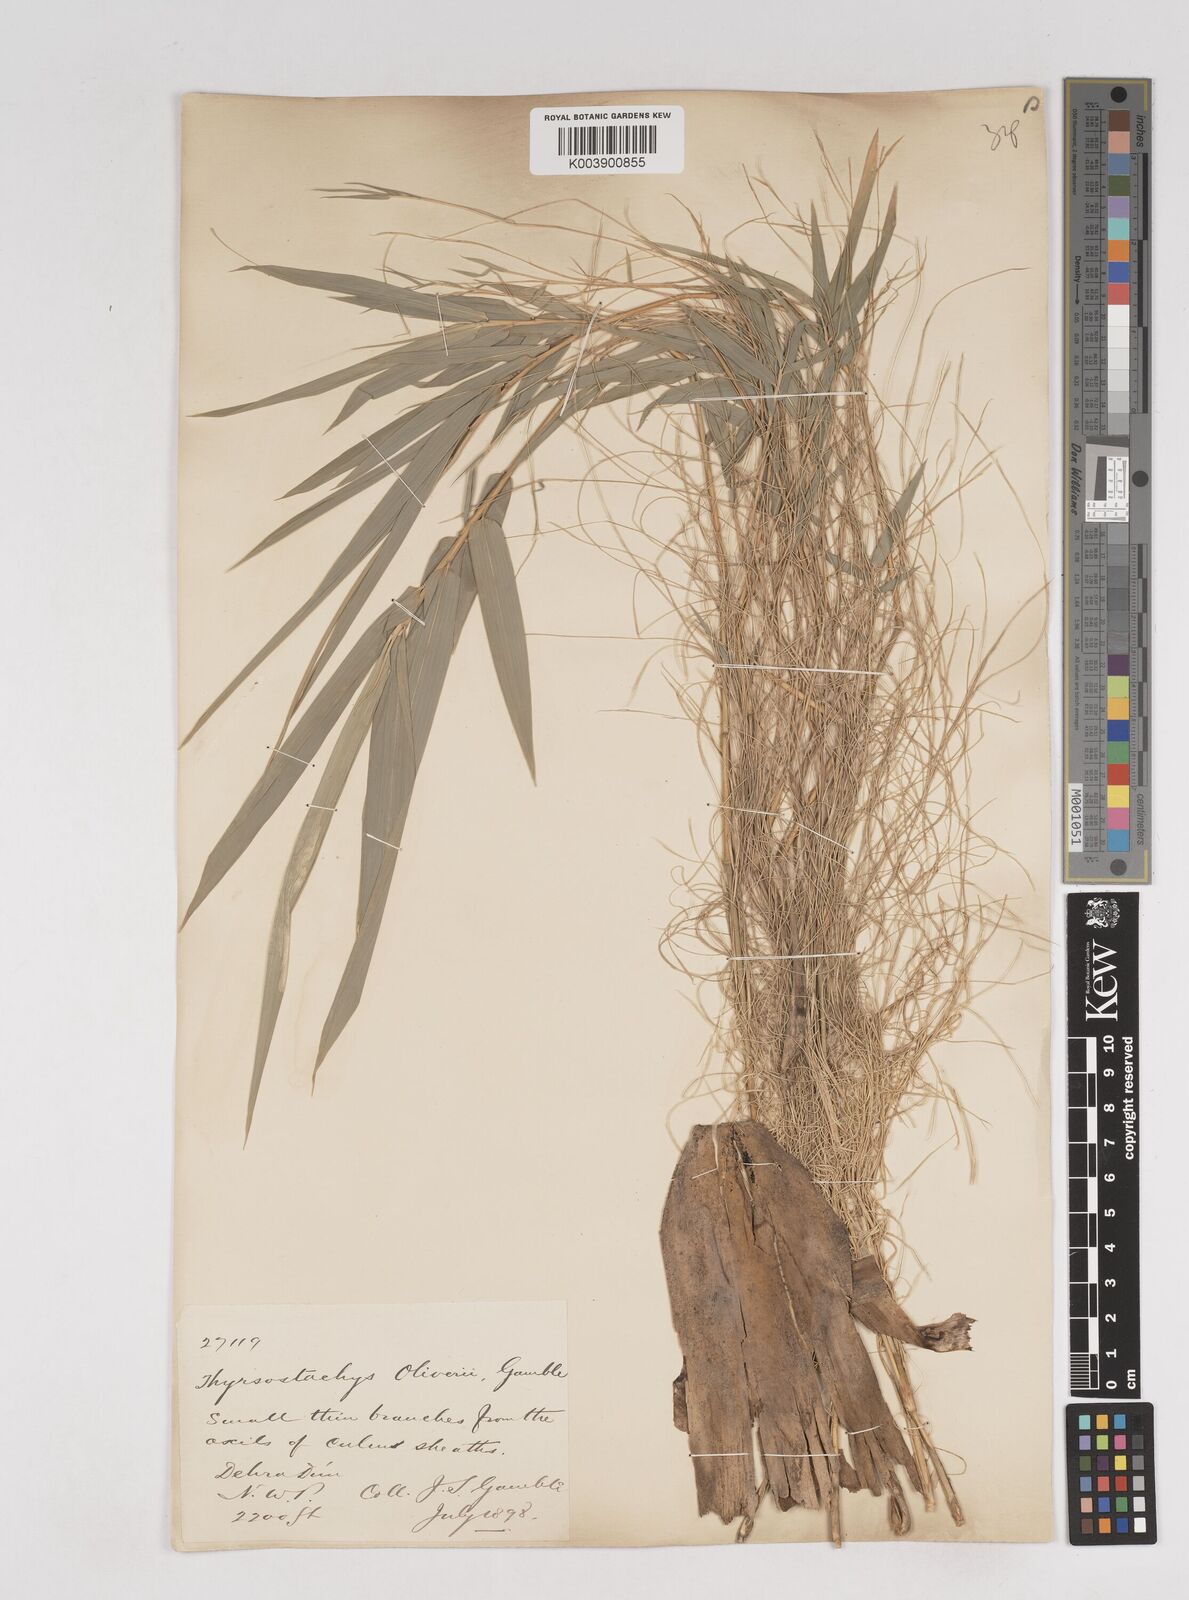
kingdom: Plantae
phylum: Tracheophyta
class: Liliopsida
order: Poales
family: Poaceae
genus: Thyrsostachys
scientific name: Thyrsostachys oliveri
